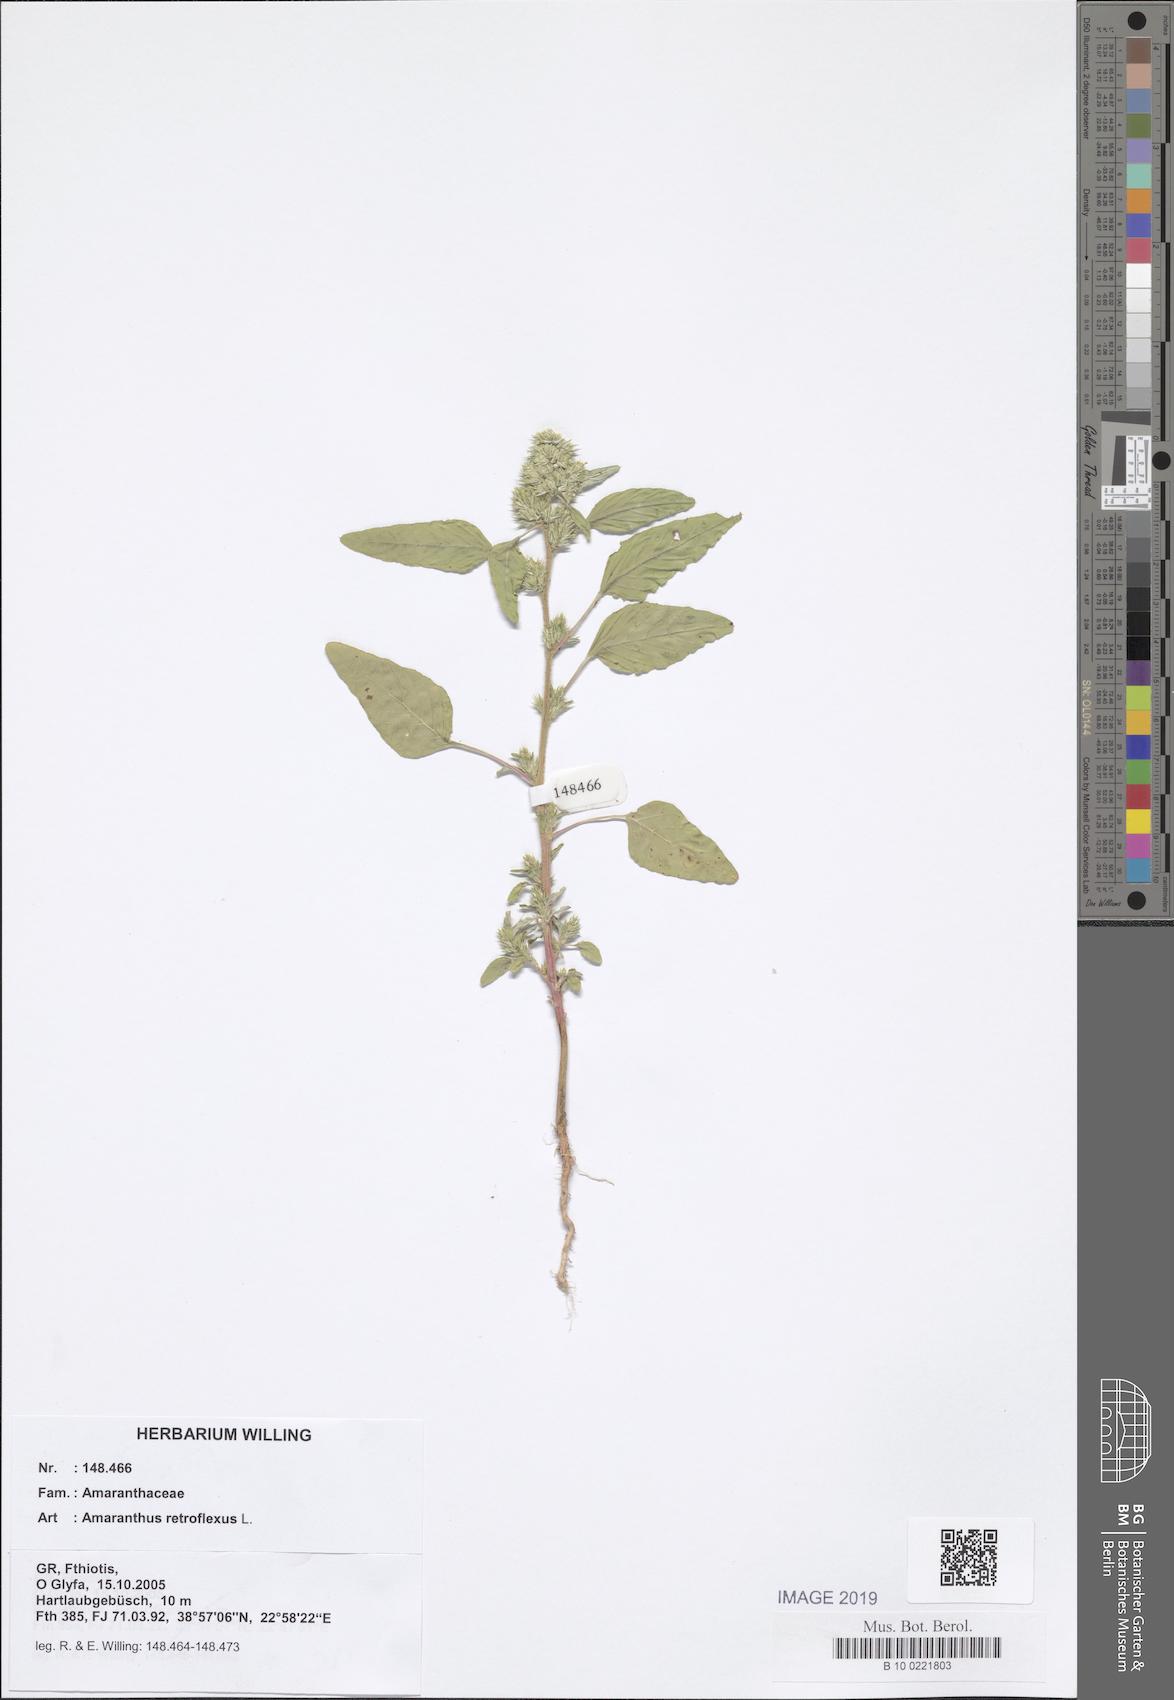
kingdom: Plantae
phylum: Tracheophyta
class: Magnoliopsida
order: Caryophyllales
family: Amaranthaceae
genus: Amaranthus
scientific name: Amaranthus retroflexus
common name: Redroot amaranth
